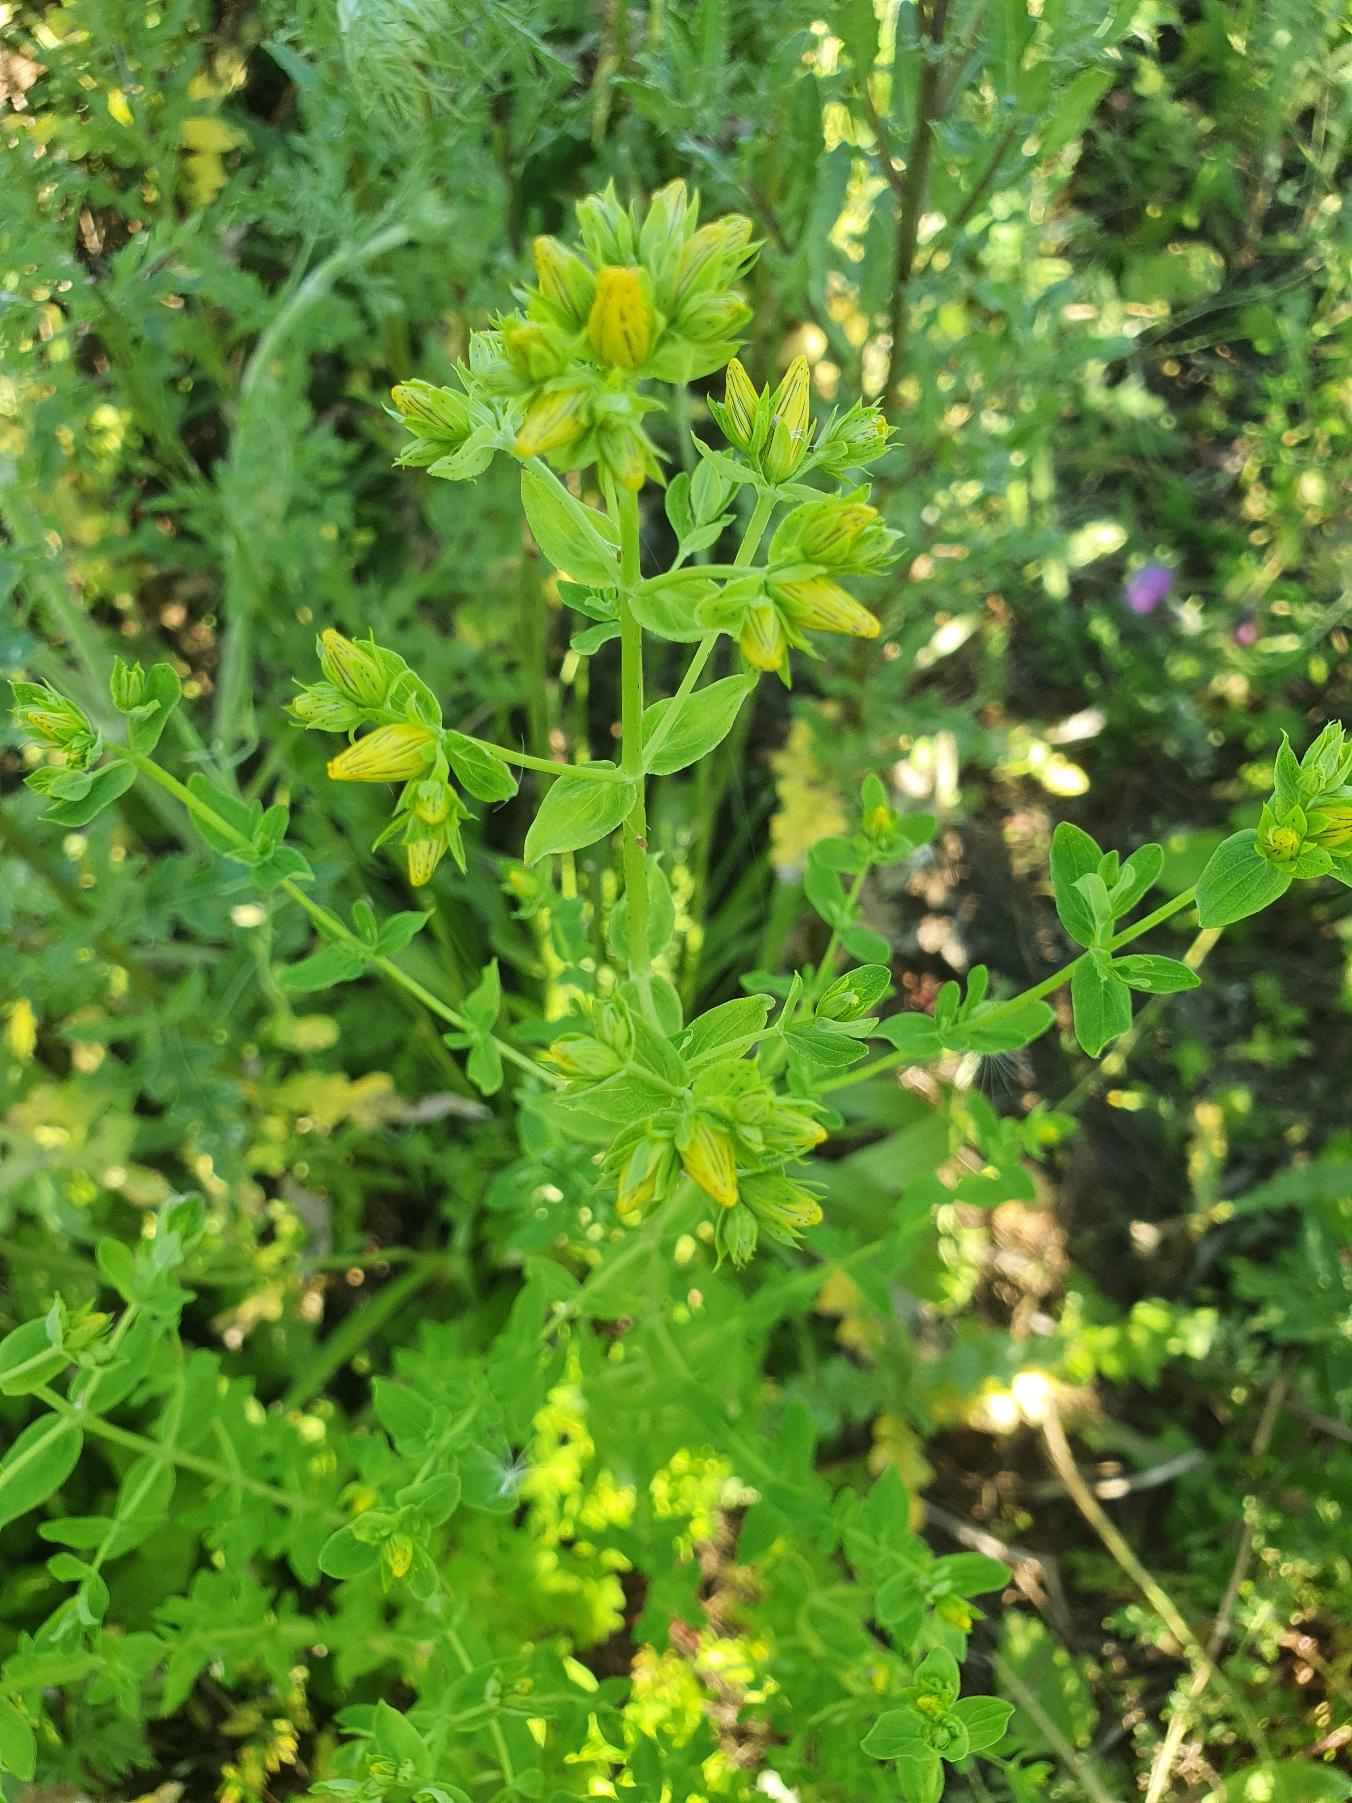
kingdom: Plantae
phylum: Tracheophyta
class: Magnoliopsida
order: Malpighiales
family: Hypericaceae
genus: Hypericum
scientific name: Hypericum perforatum
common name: Prikbladet perikon
